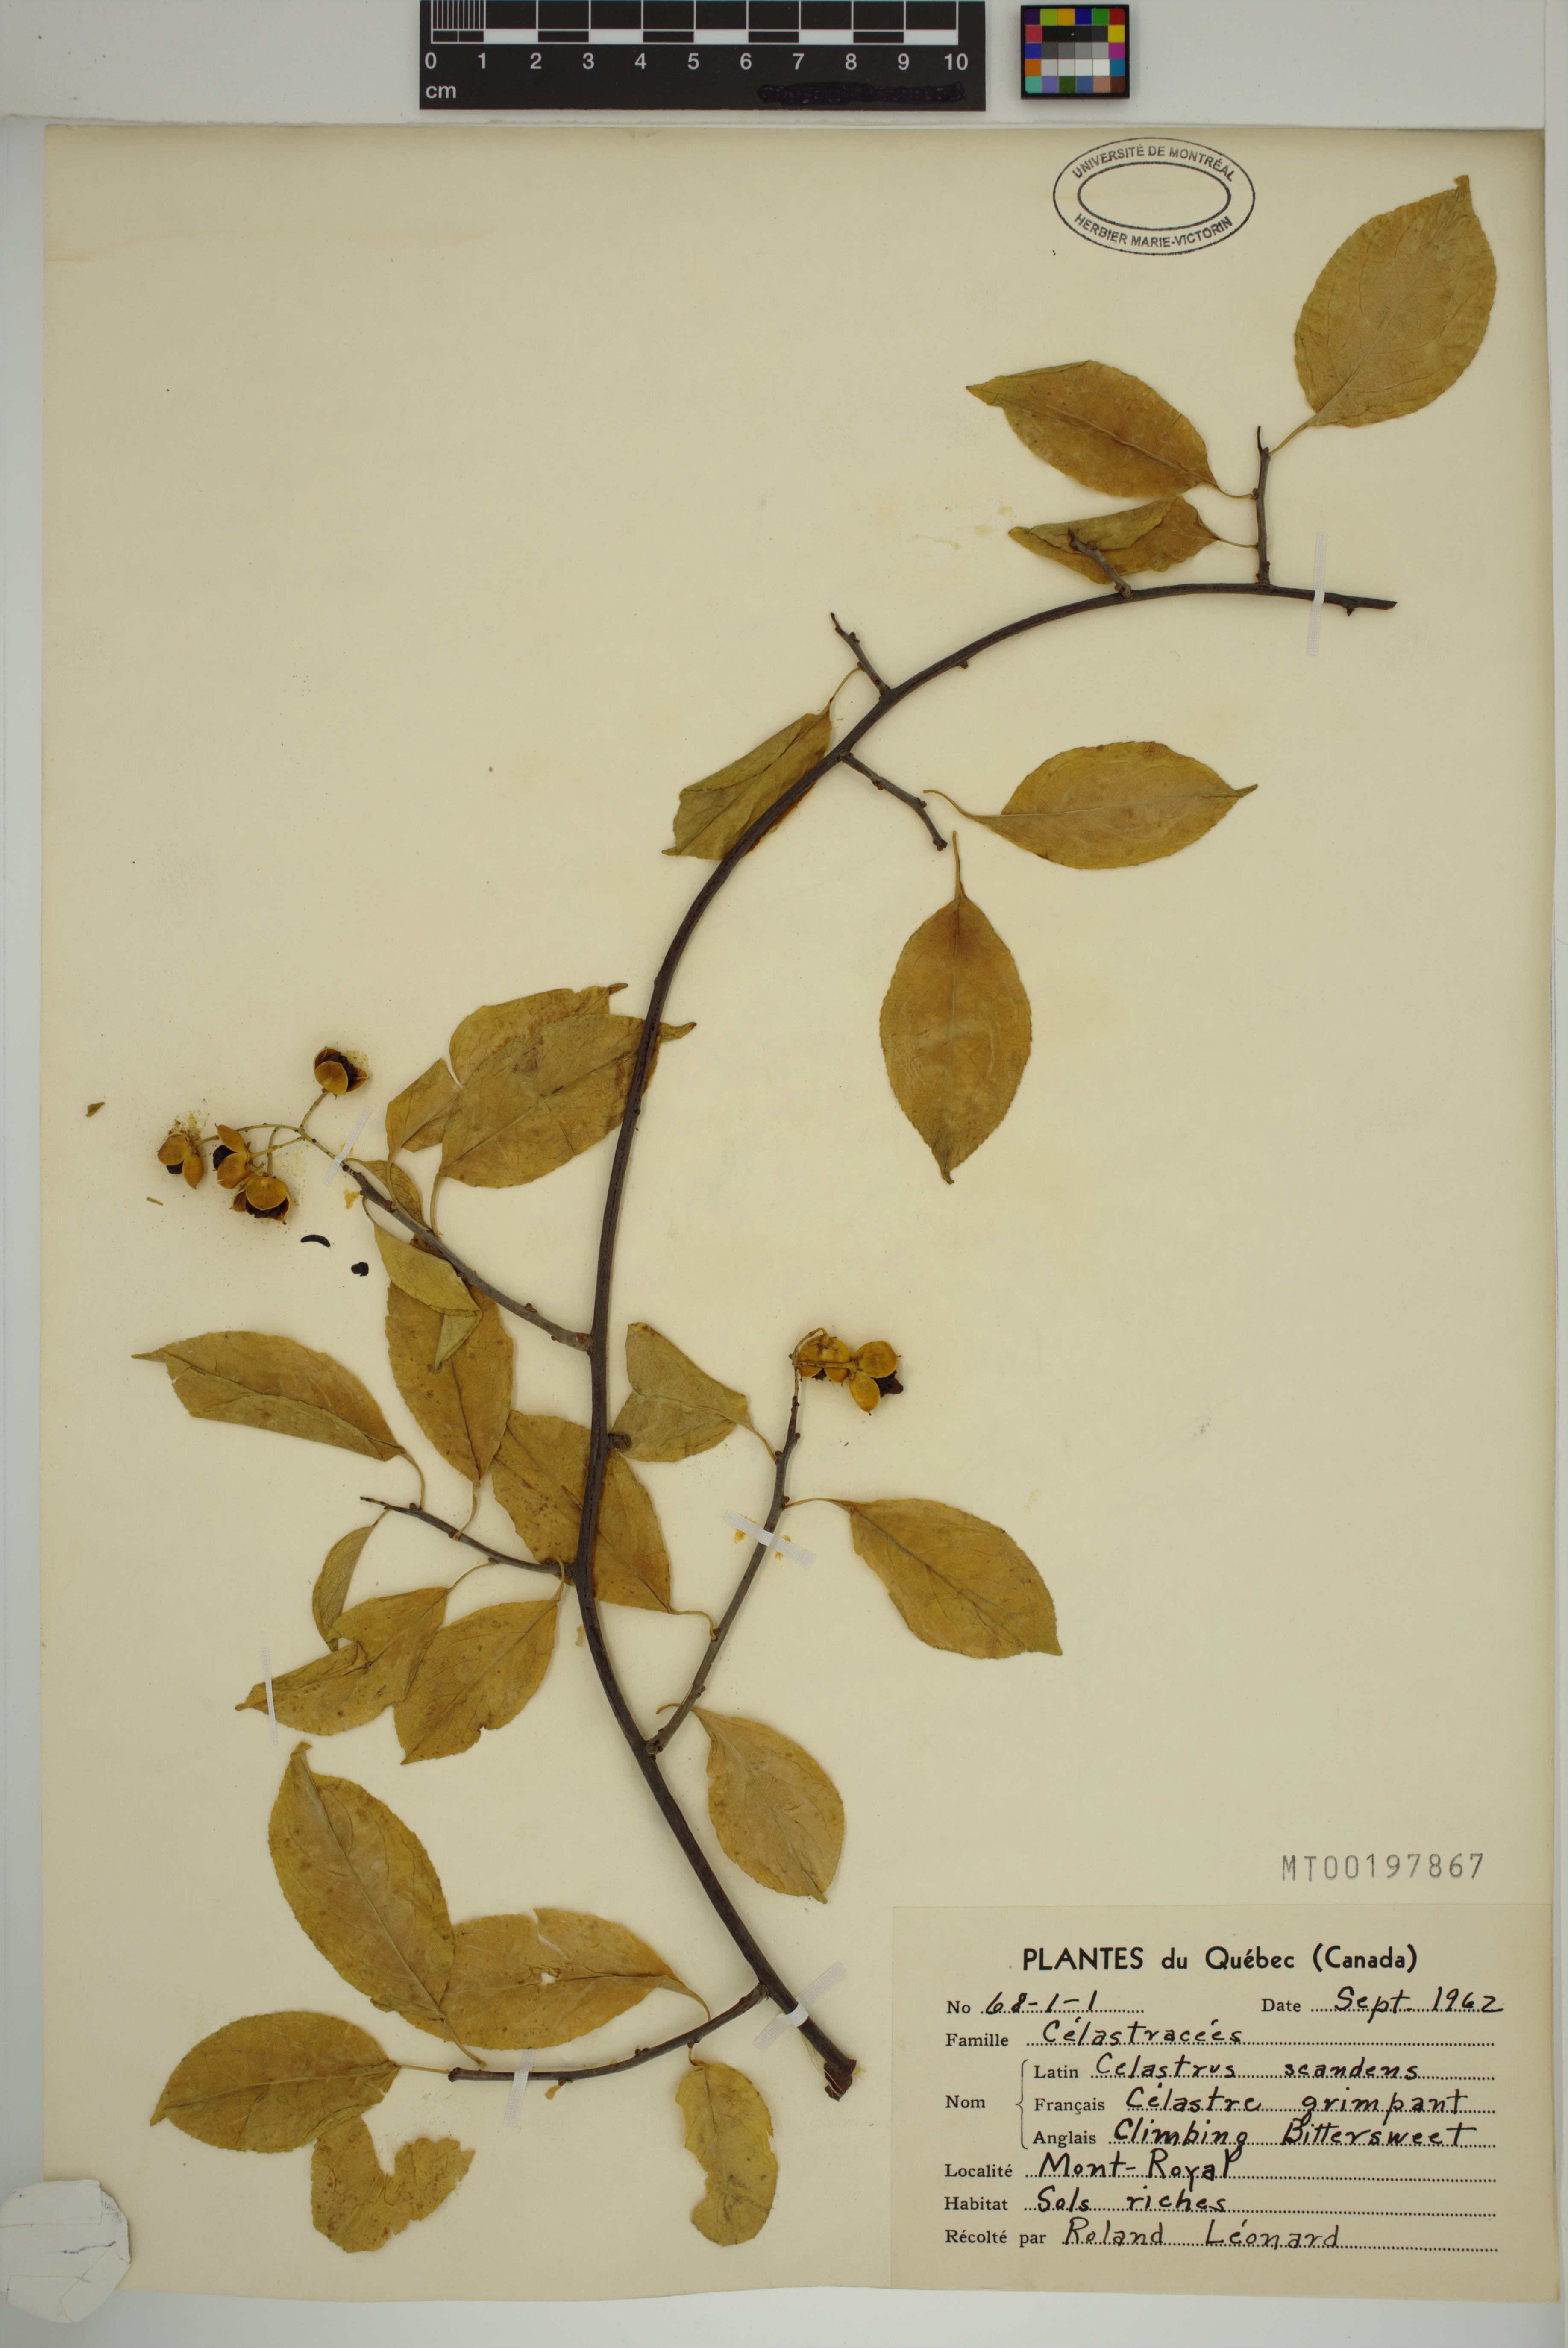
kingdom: Plantae
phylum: Tracheophyta
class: Magnoliopsida
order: Celastrales
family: Celastraceae
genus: Celastrus
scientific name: Celastrus scandens
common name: American bittersweet
